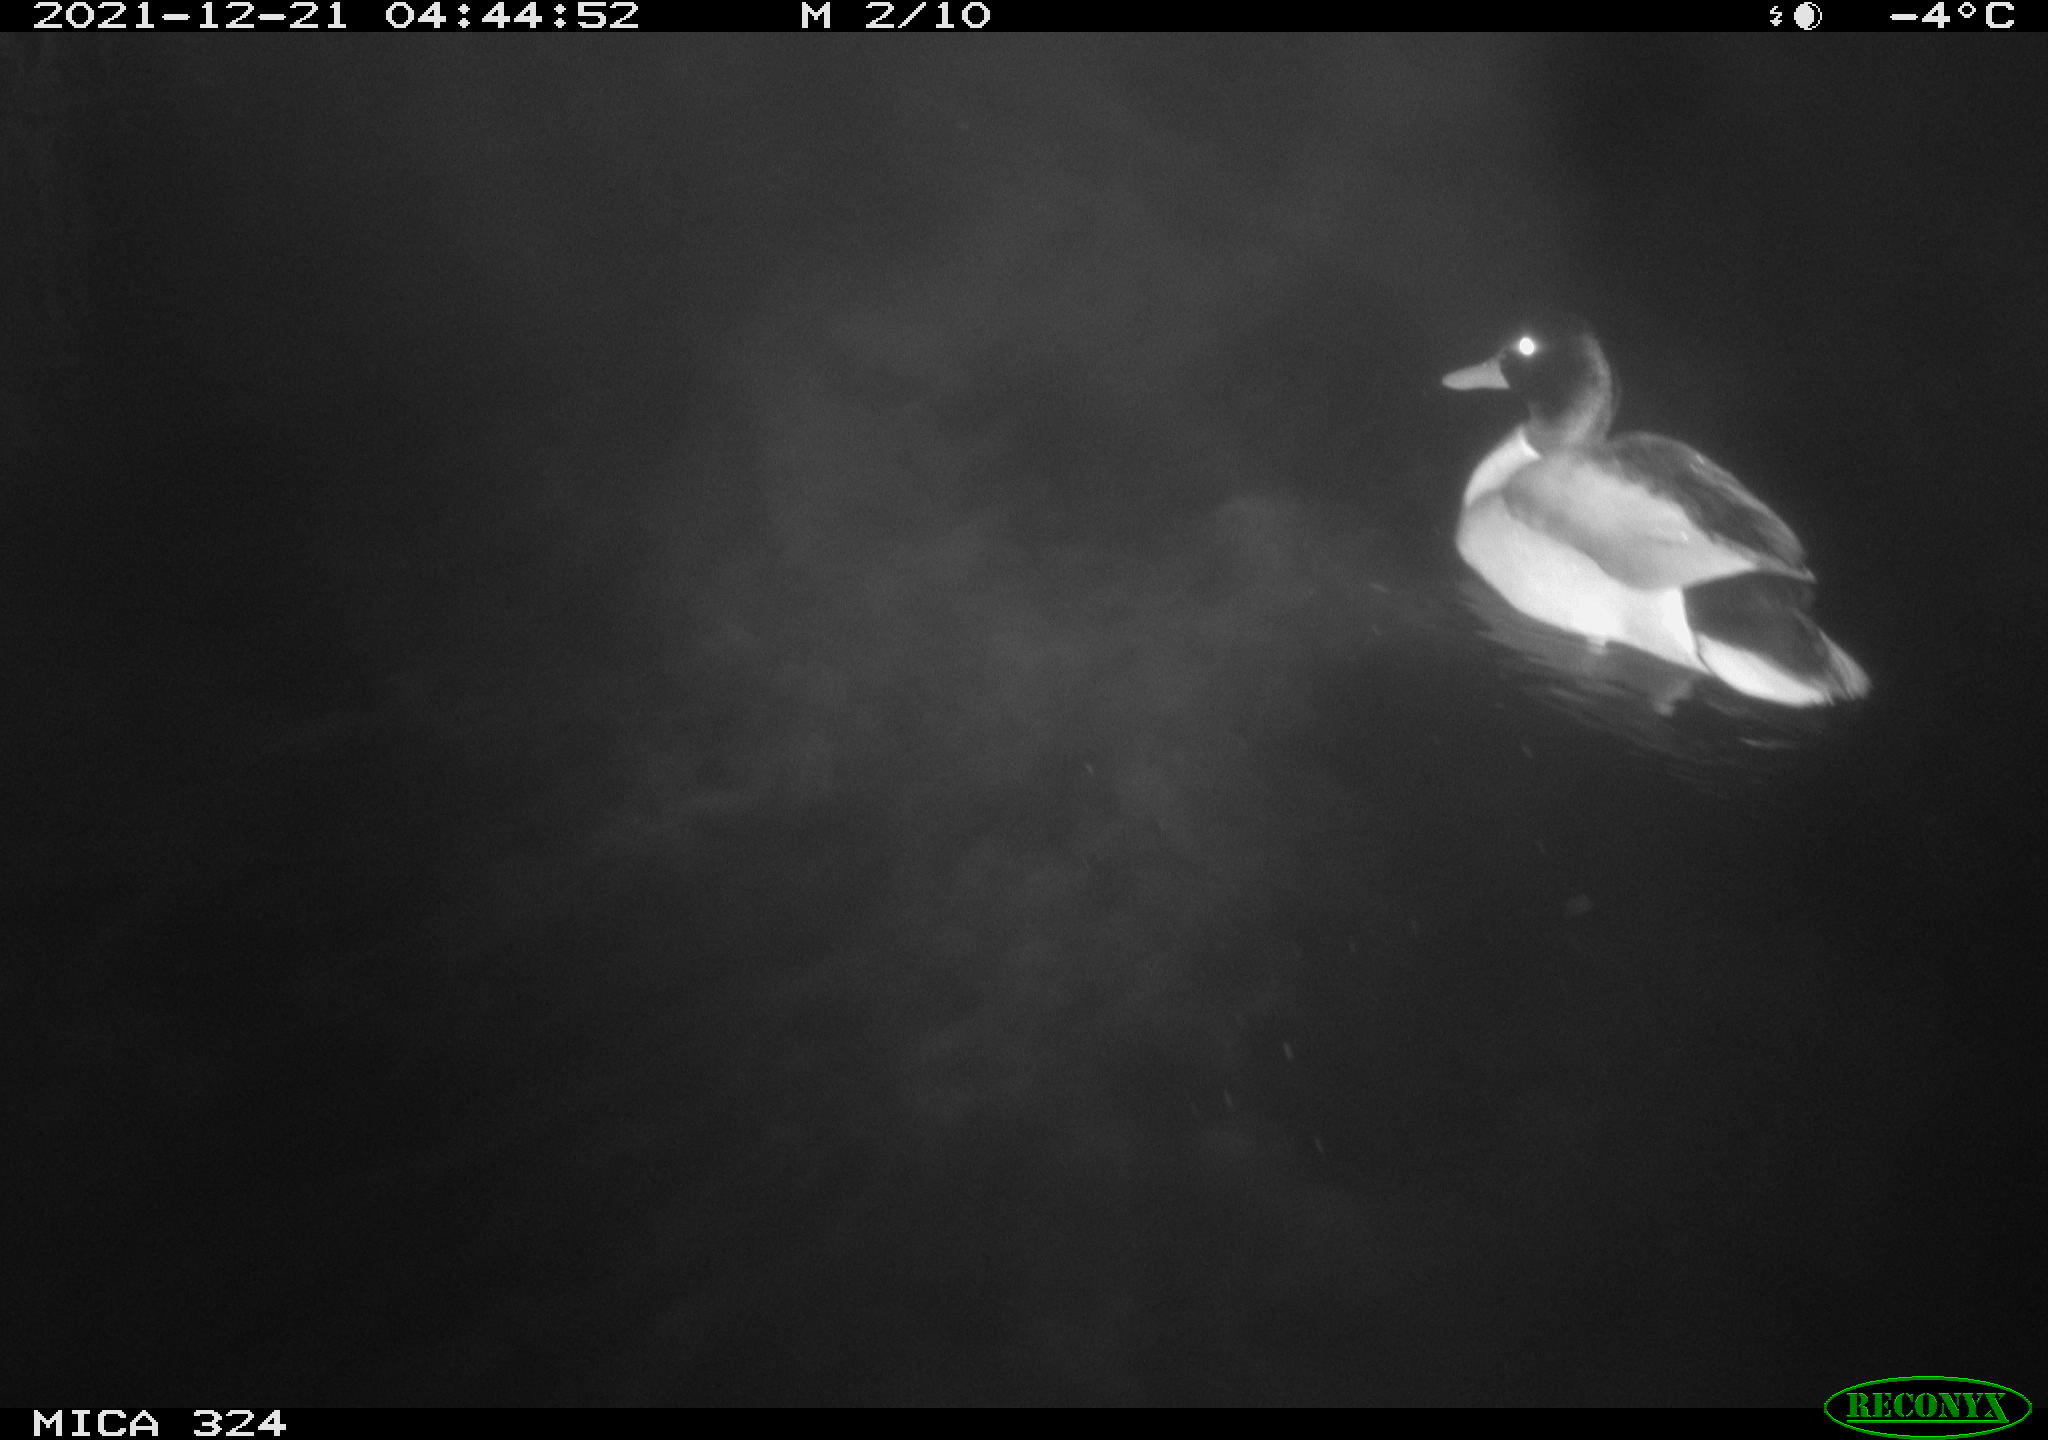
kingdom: Animalia
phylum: Chordata
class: Aves
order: Anseriformes
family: Anatidae
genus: Anas
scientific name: Anas platyrhynchos
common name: Mallard
